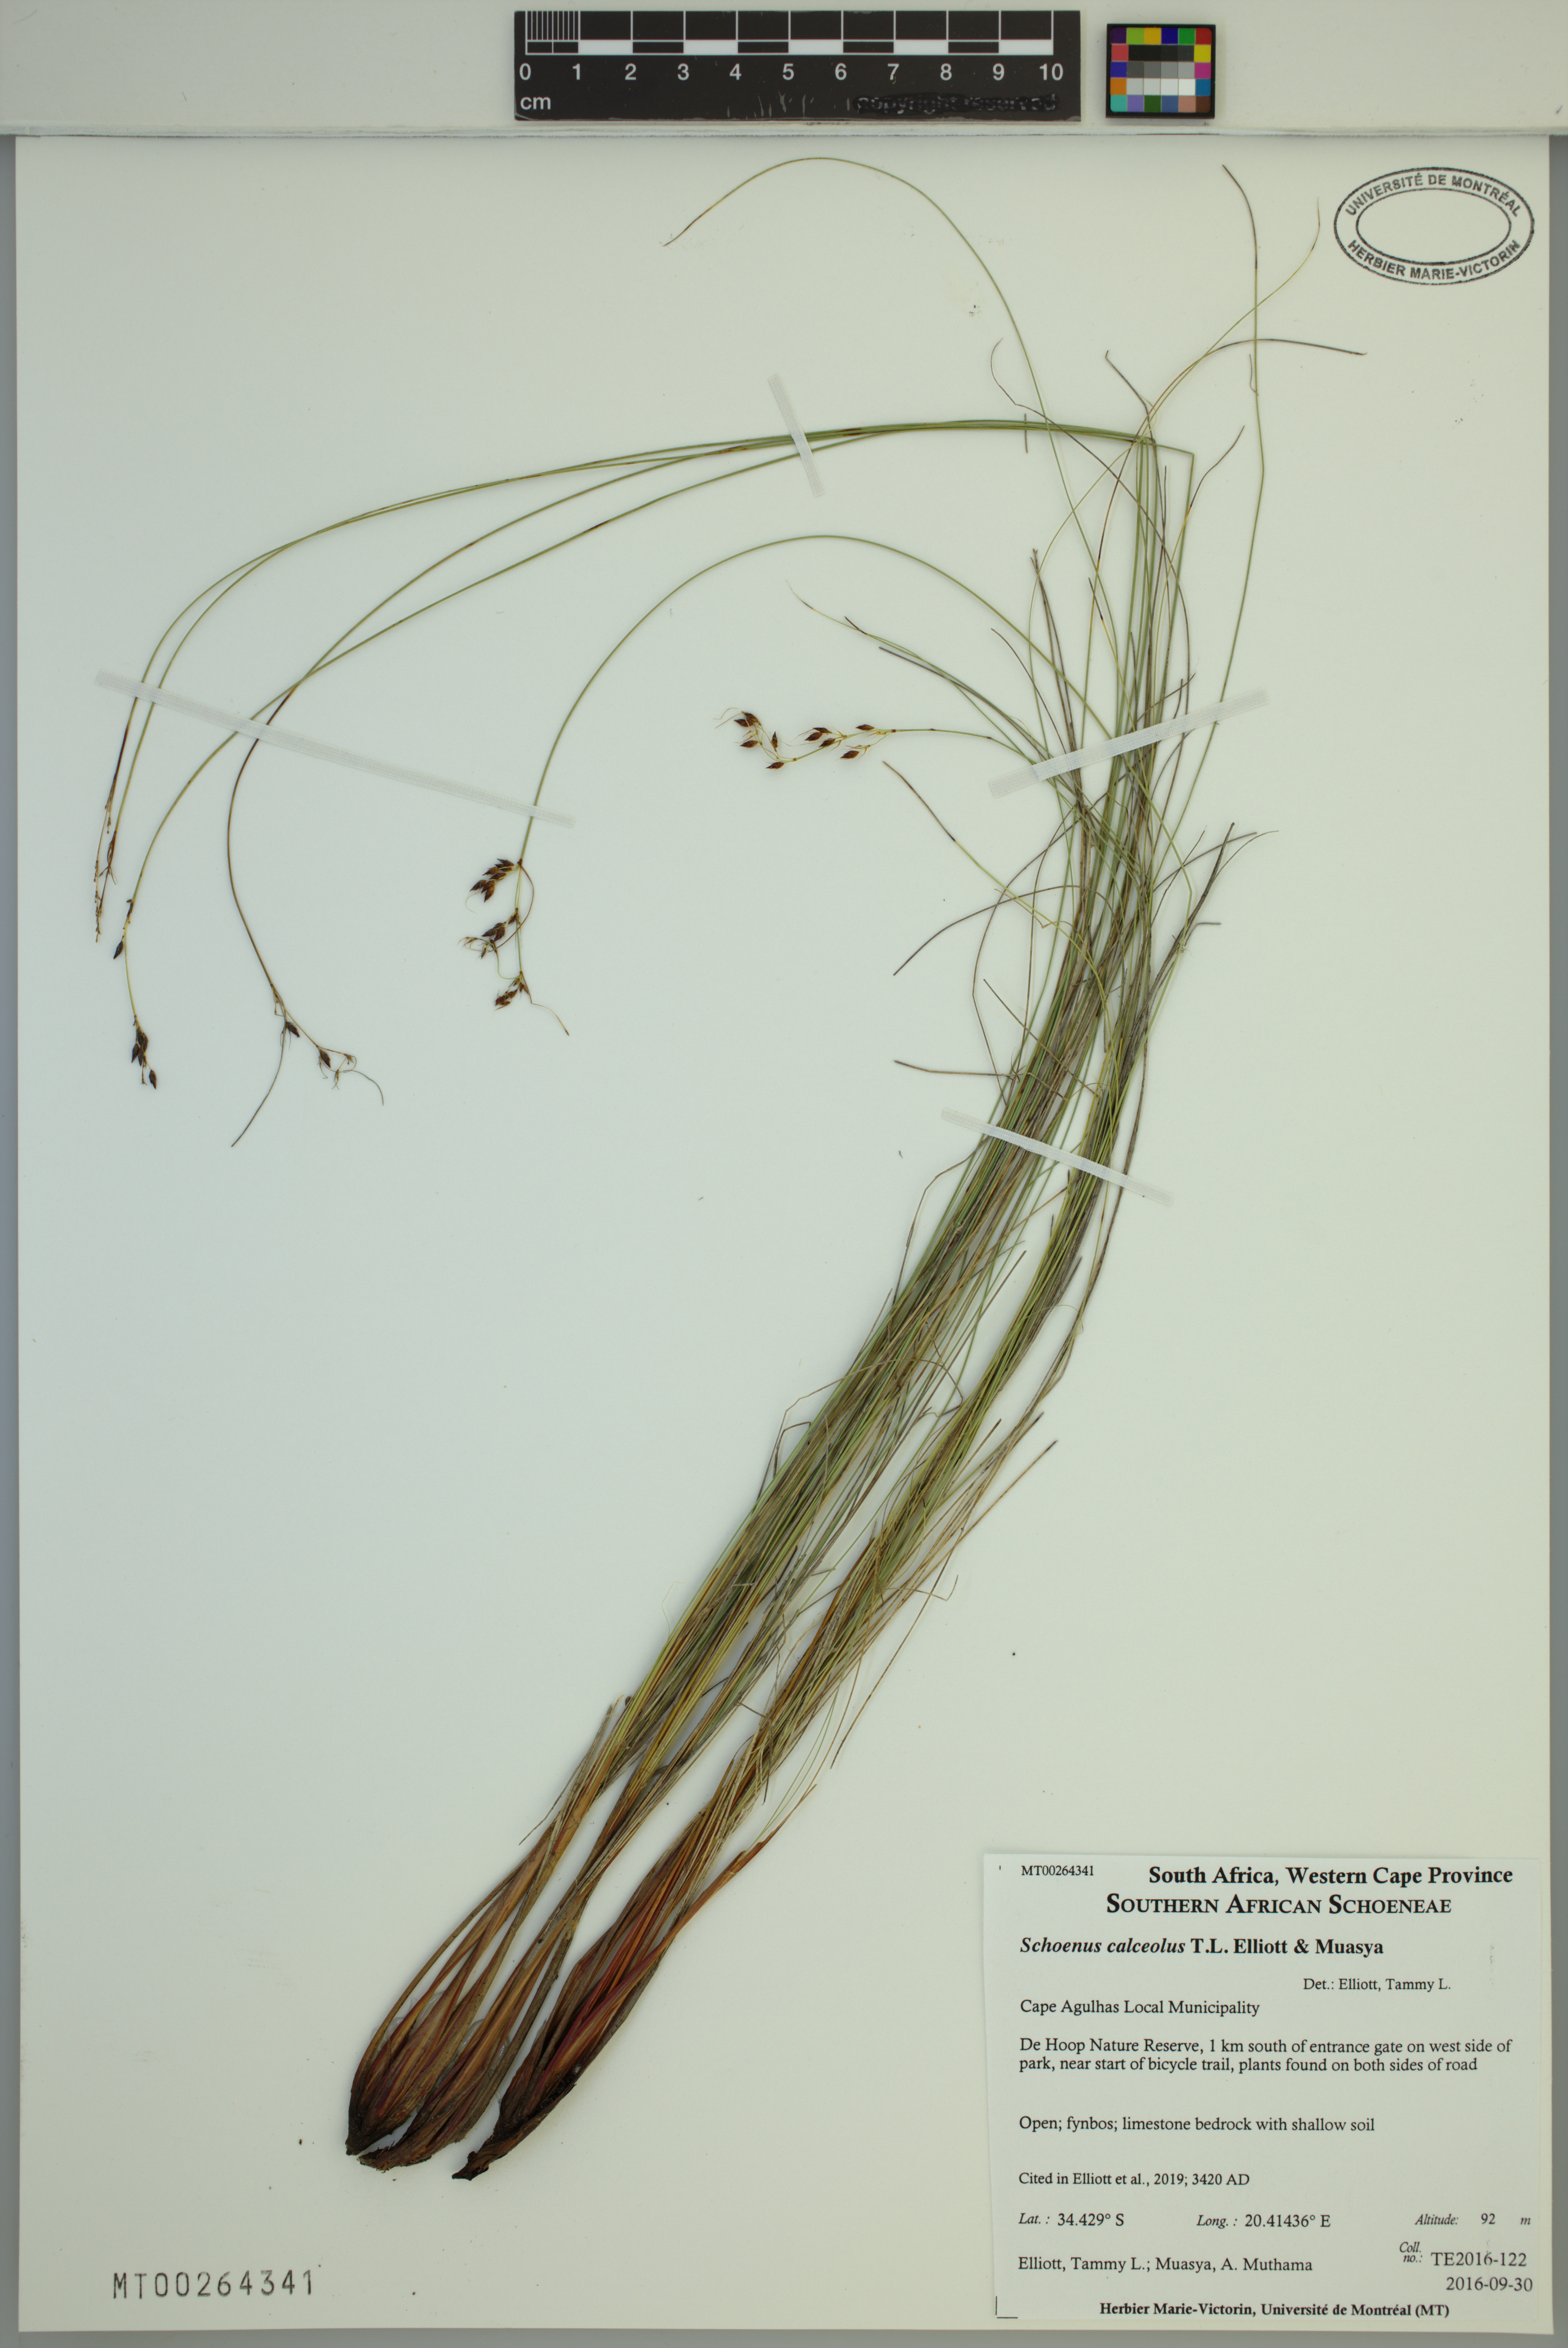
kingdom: Plantae
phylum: Tracheophyta
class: Liliopsida
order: Poales
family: Cyperaceae
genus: Schoenus
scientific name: Schoenus calceolus
